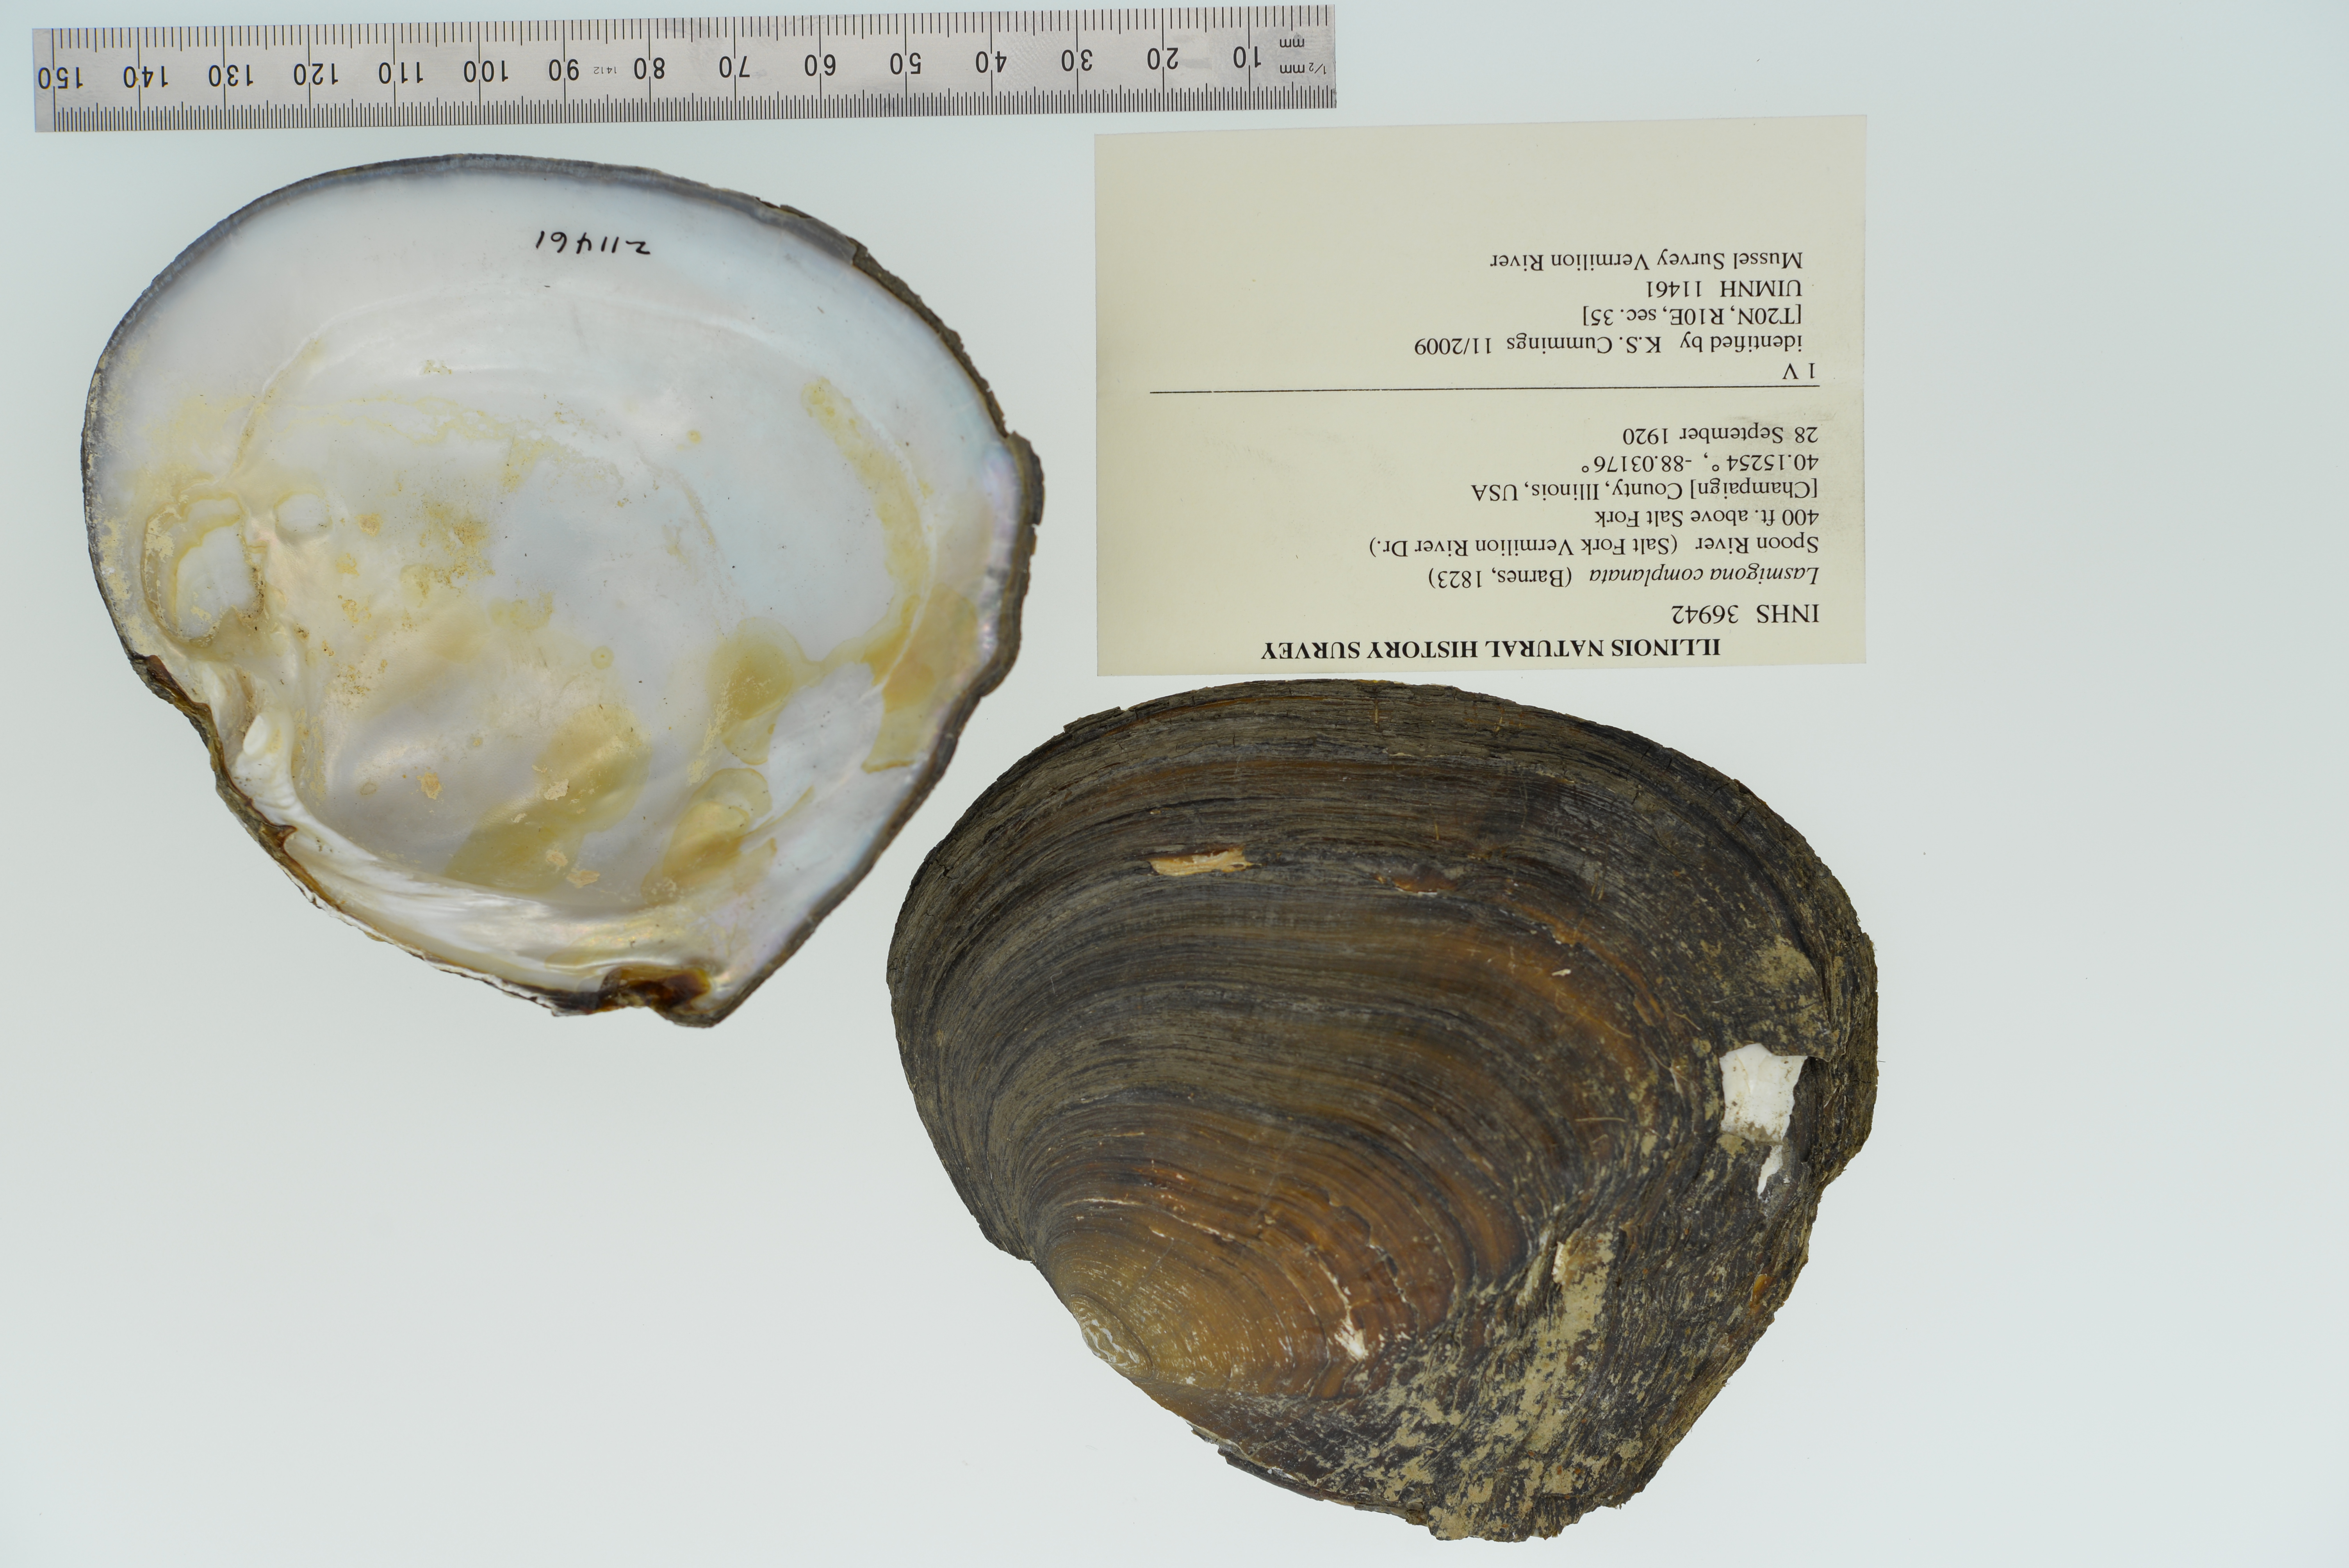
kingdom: Animalia
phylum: Mollusca
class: Bivalvia
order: Unionida
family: Unionidae
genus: Lasmigona
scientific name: Lasmigona complanata
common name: White heelsplitter
